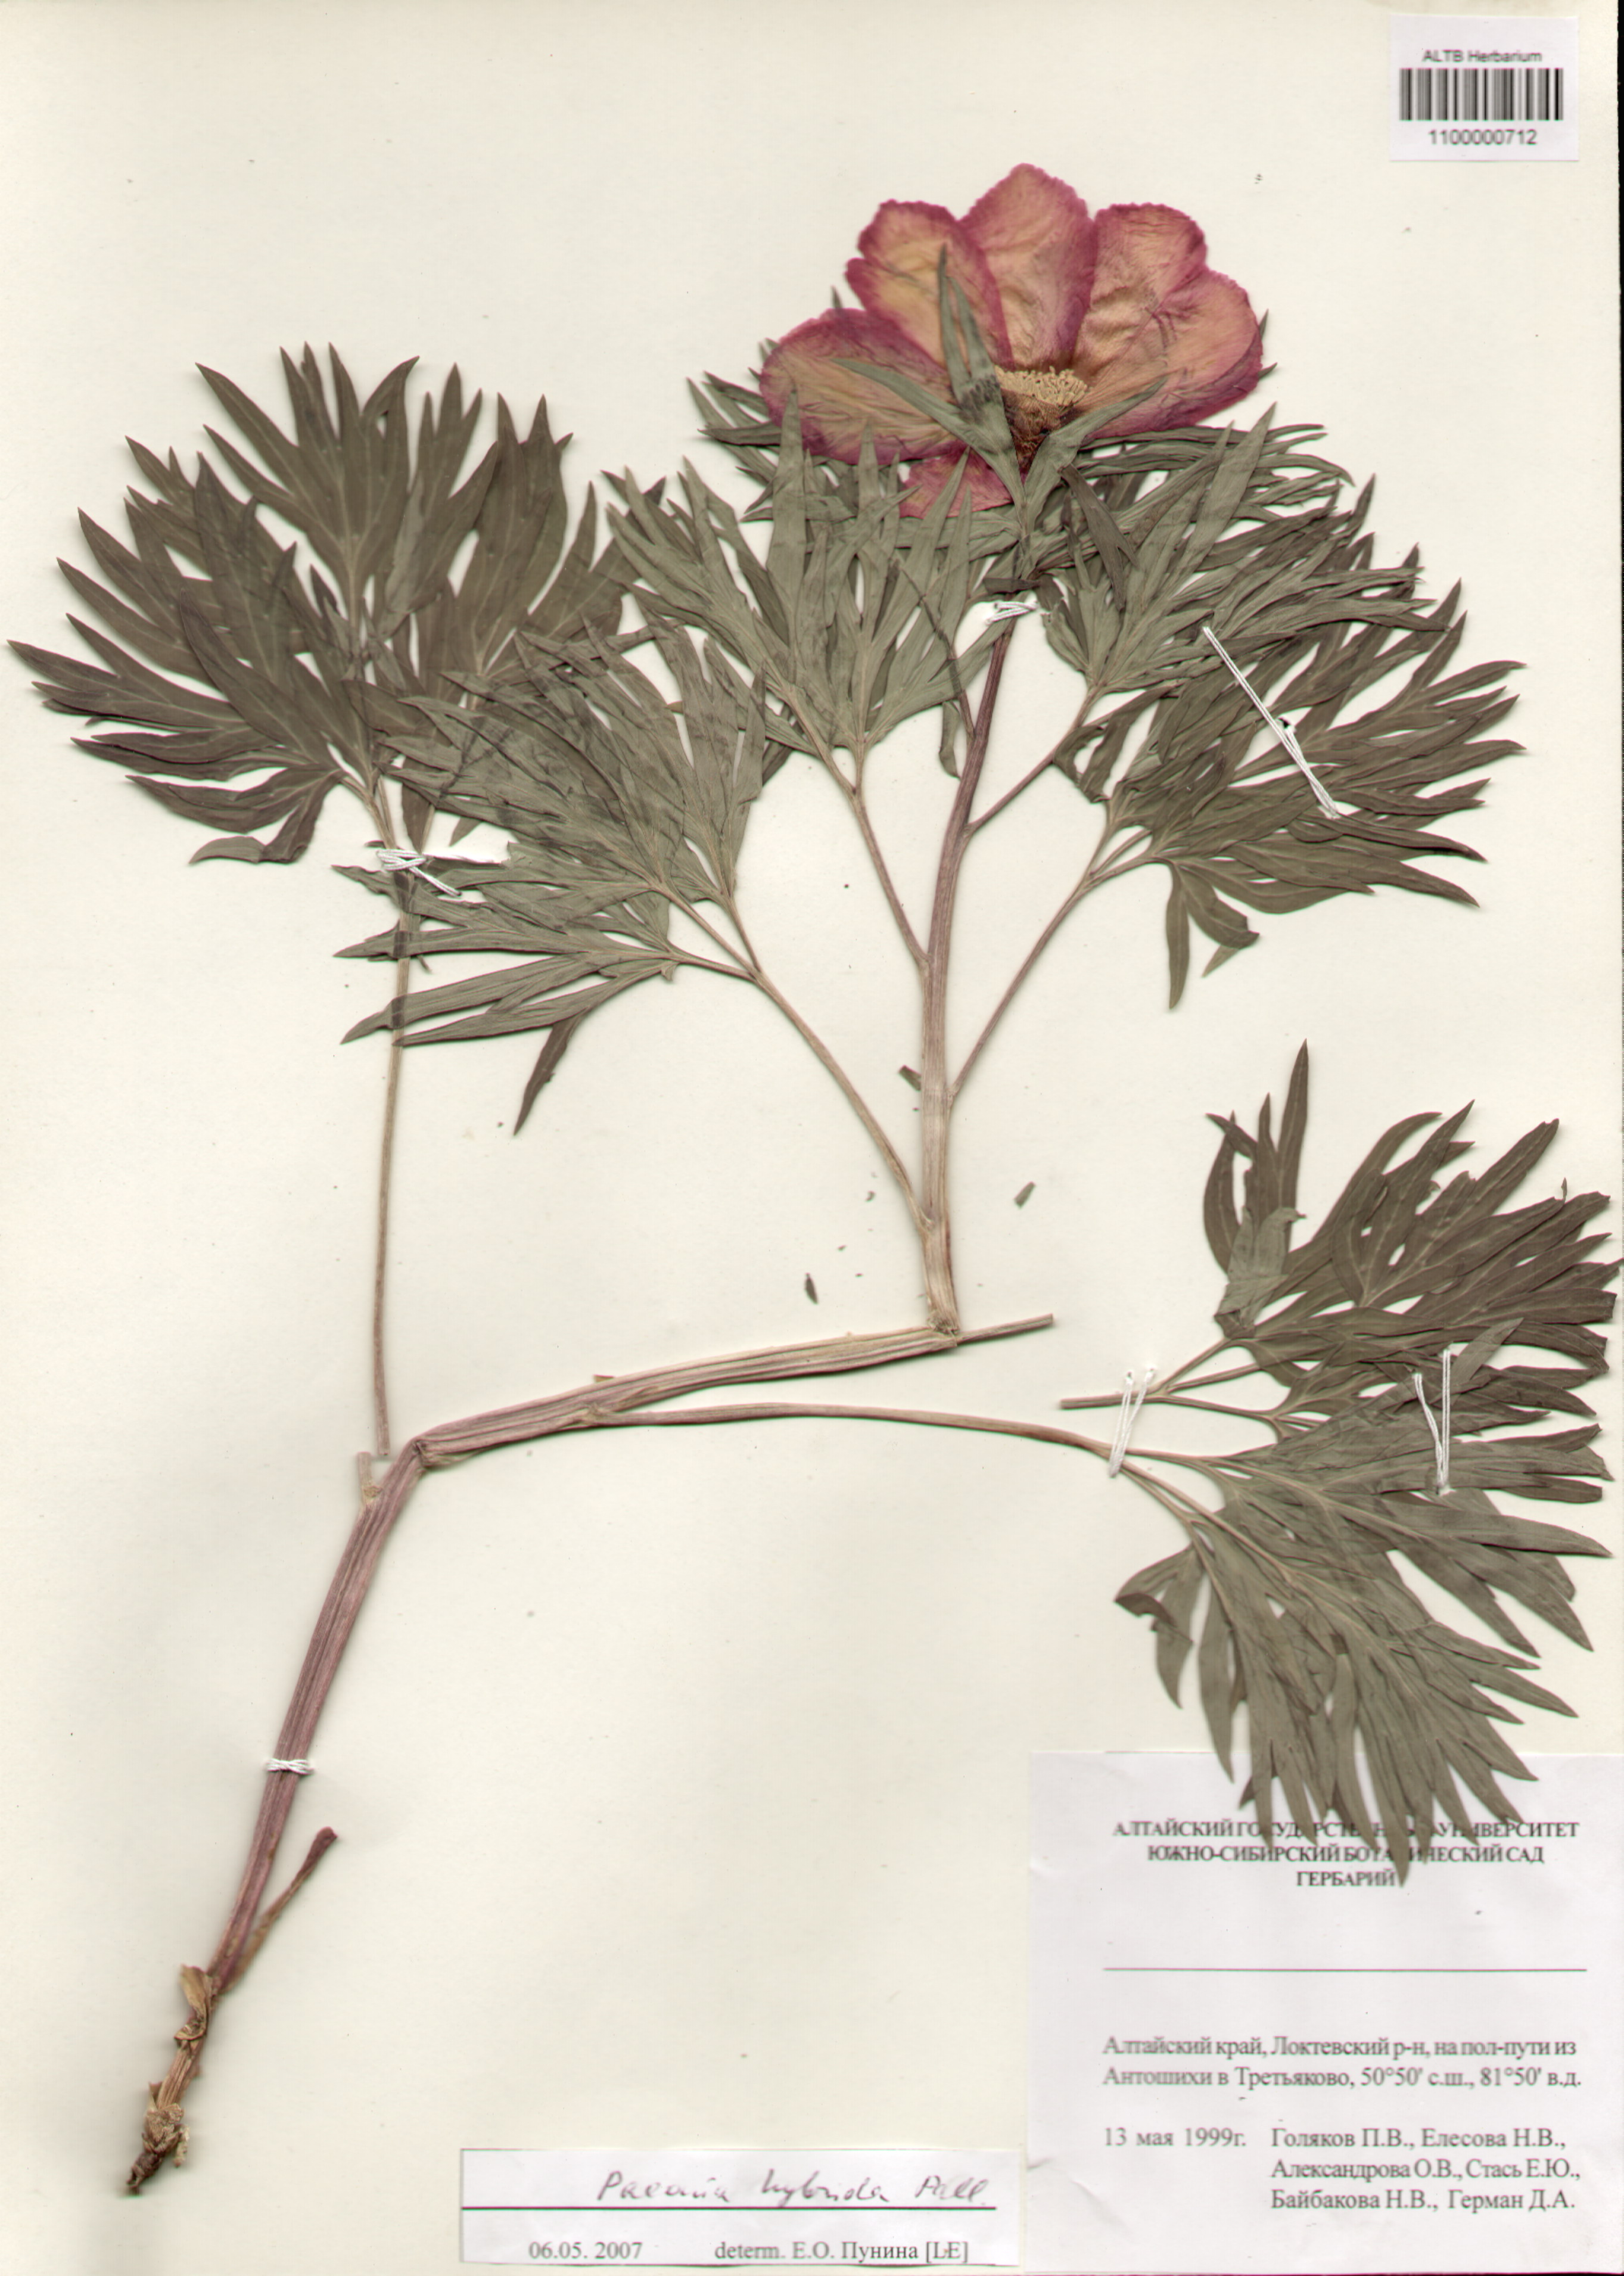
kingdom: Plantae
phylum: Tracheophyta
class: Magnoliopsida
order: Saxifragales
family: Paeoniaceae
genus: Paeonia
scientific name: Paeonia
